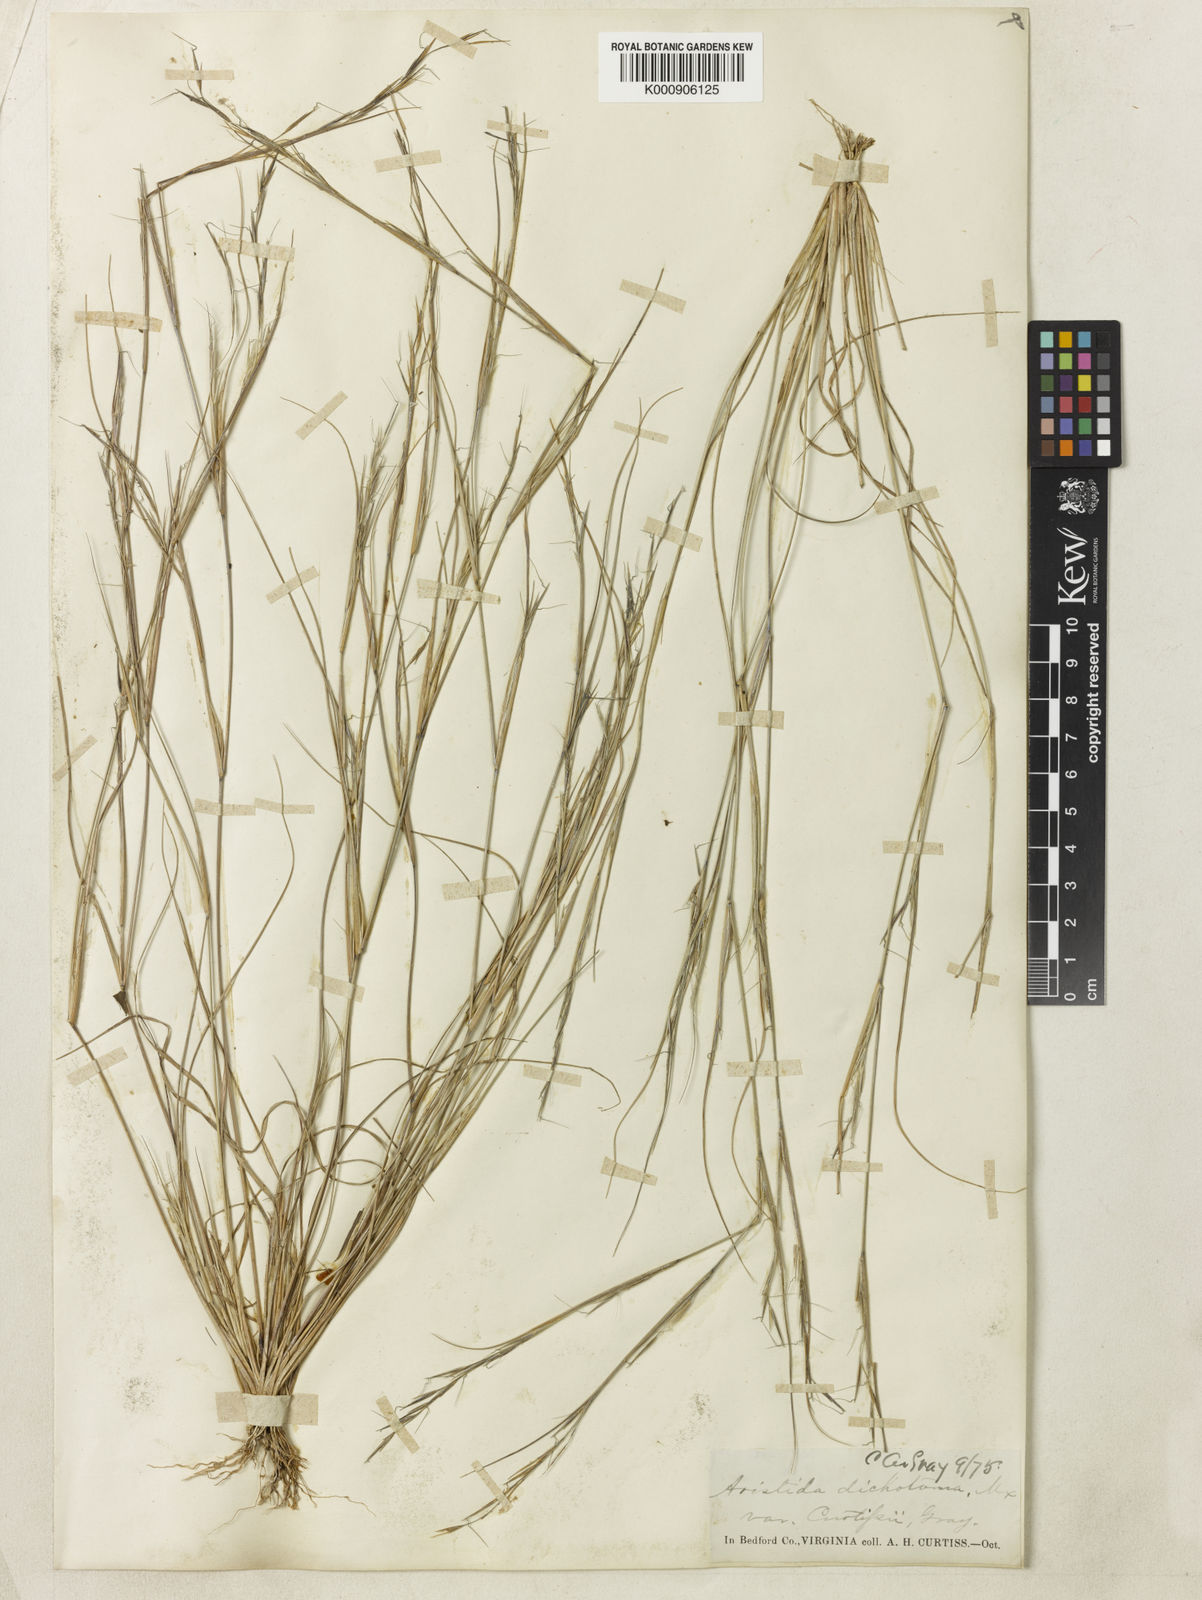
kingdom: Plantae
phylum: Tracheophyta
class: Liliopsida
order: Poales
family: Poaceae
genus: Aristida
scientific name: Aristida curtissii
